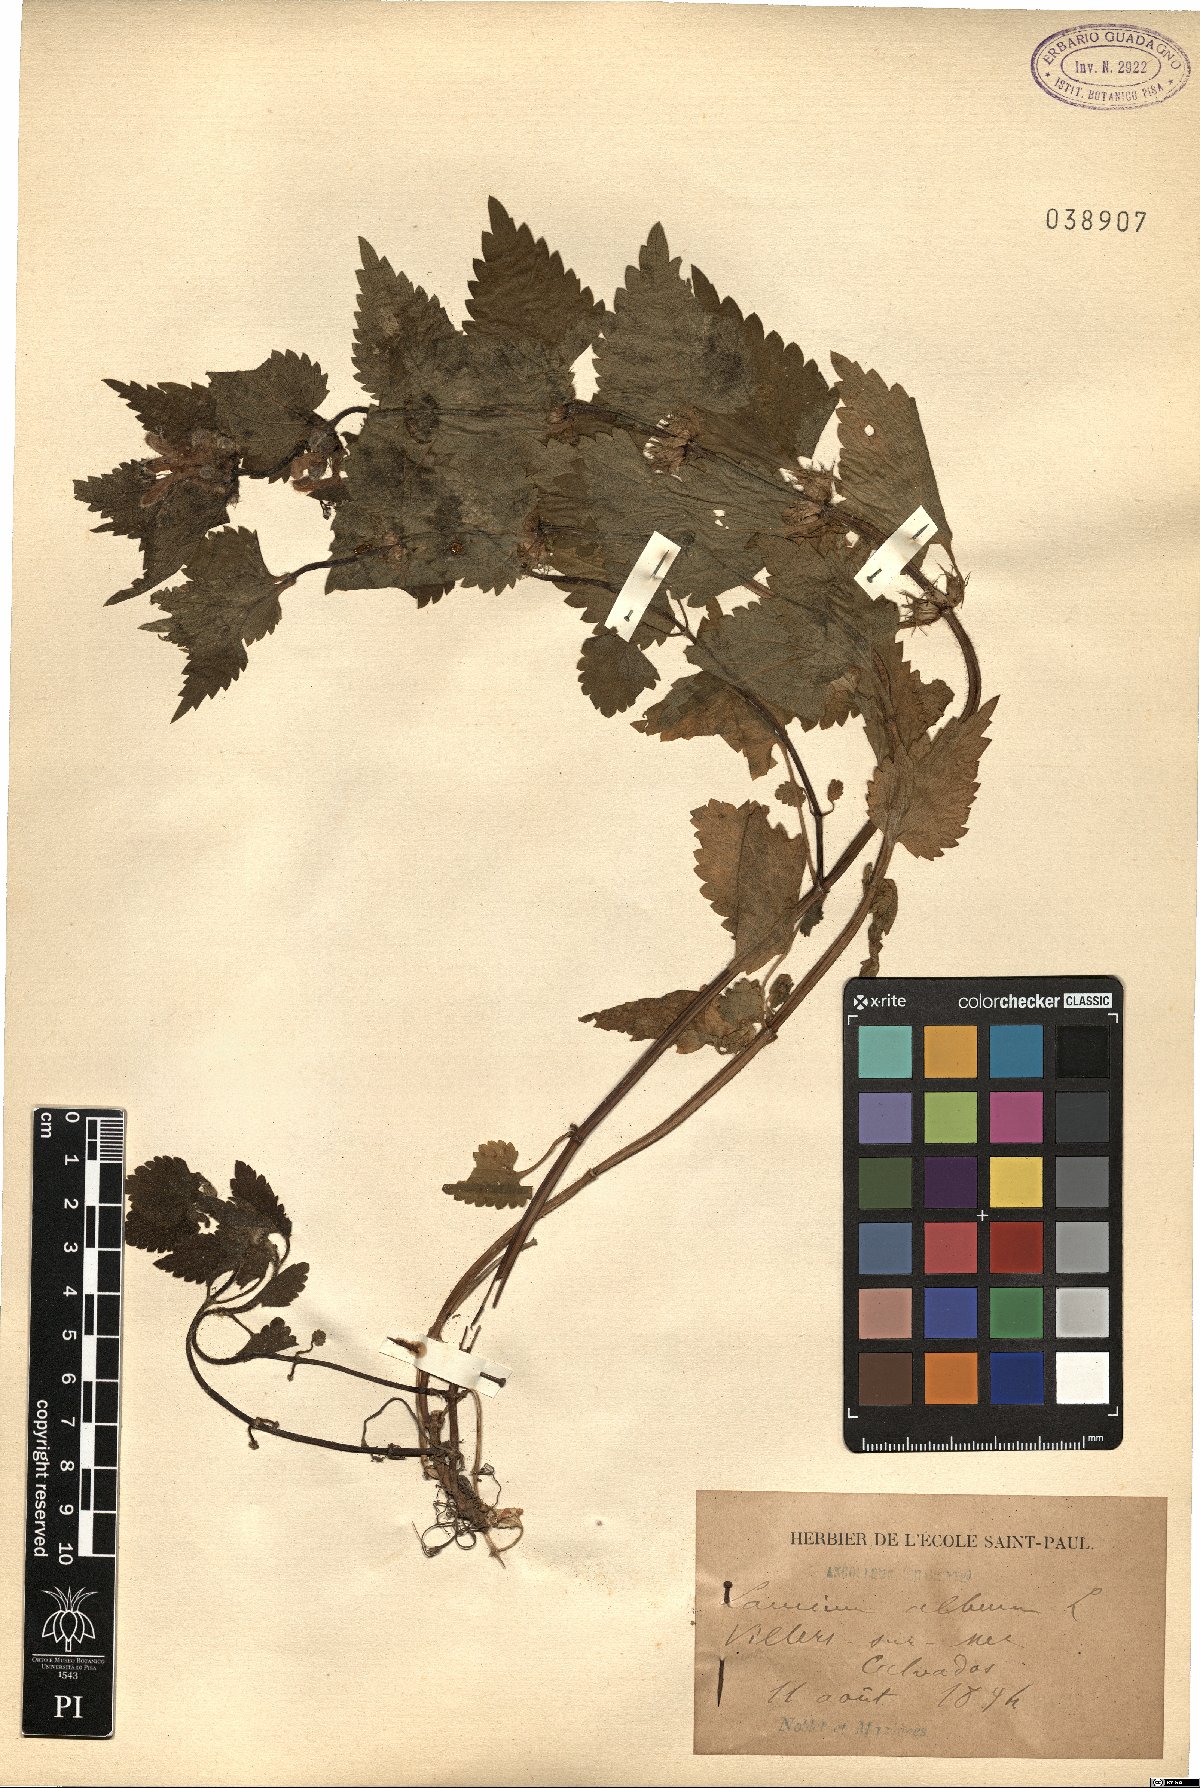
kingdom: Plantae
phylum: Tracheophyta
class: Magnoliopsida
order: Lamiales
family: Lamiaceae
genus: Lamium
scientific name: Lamium album
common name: White dead-nettle
